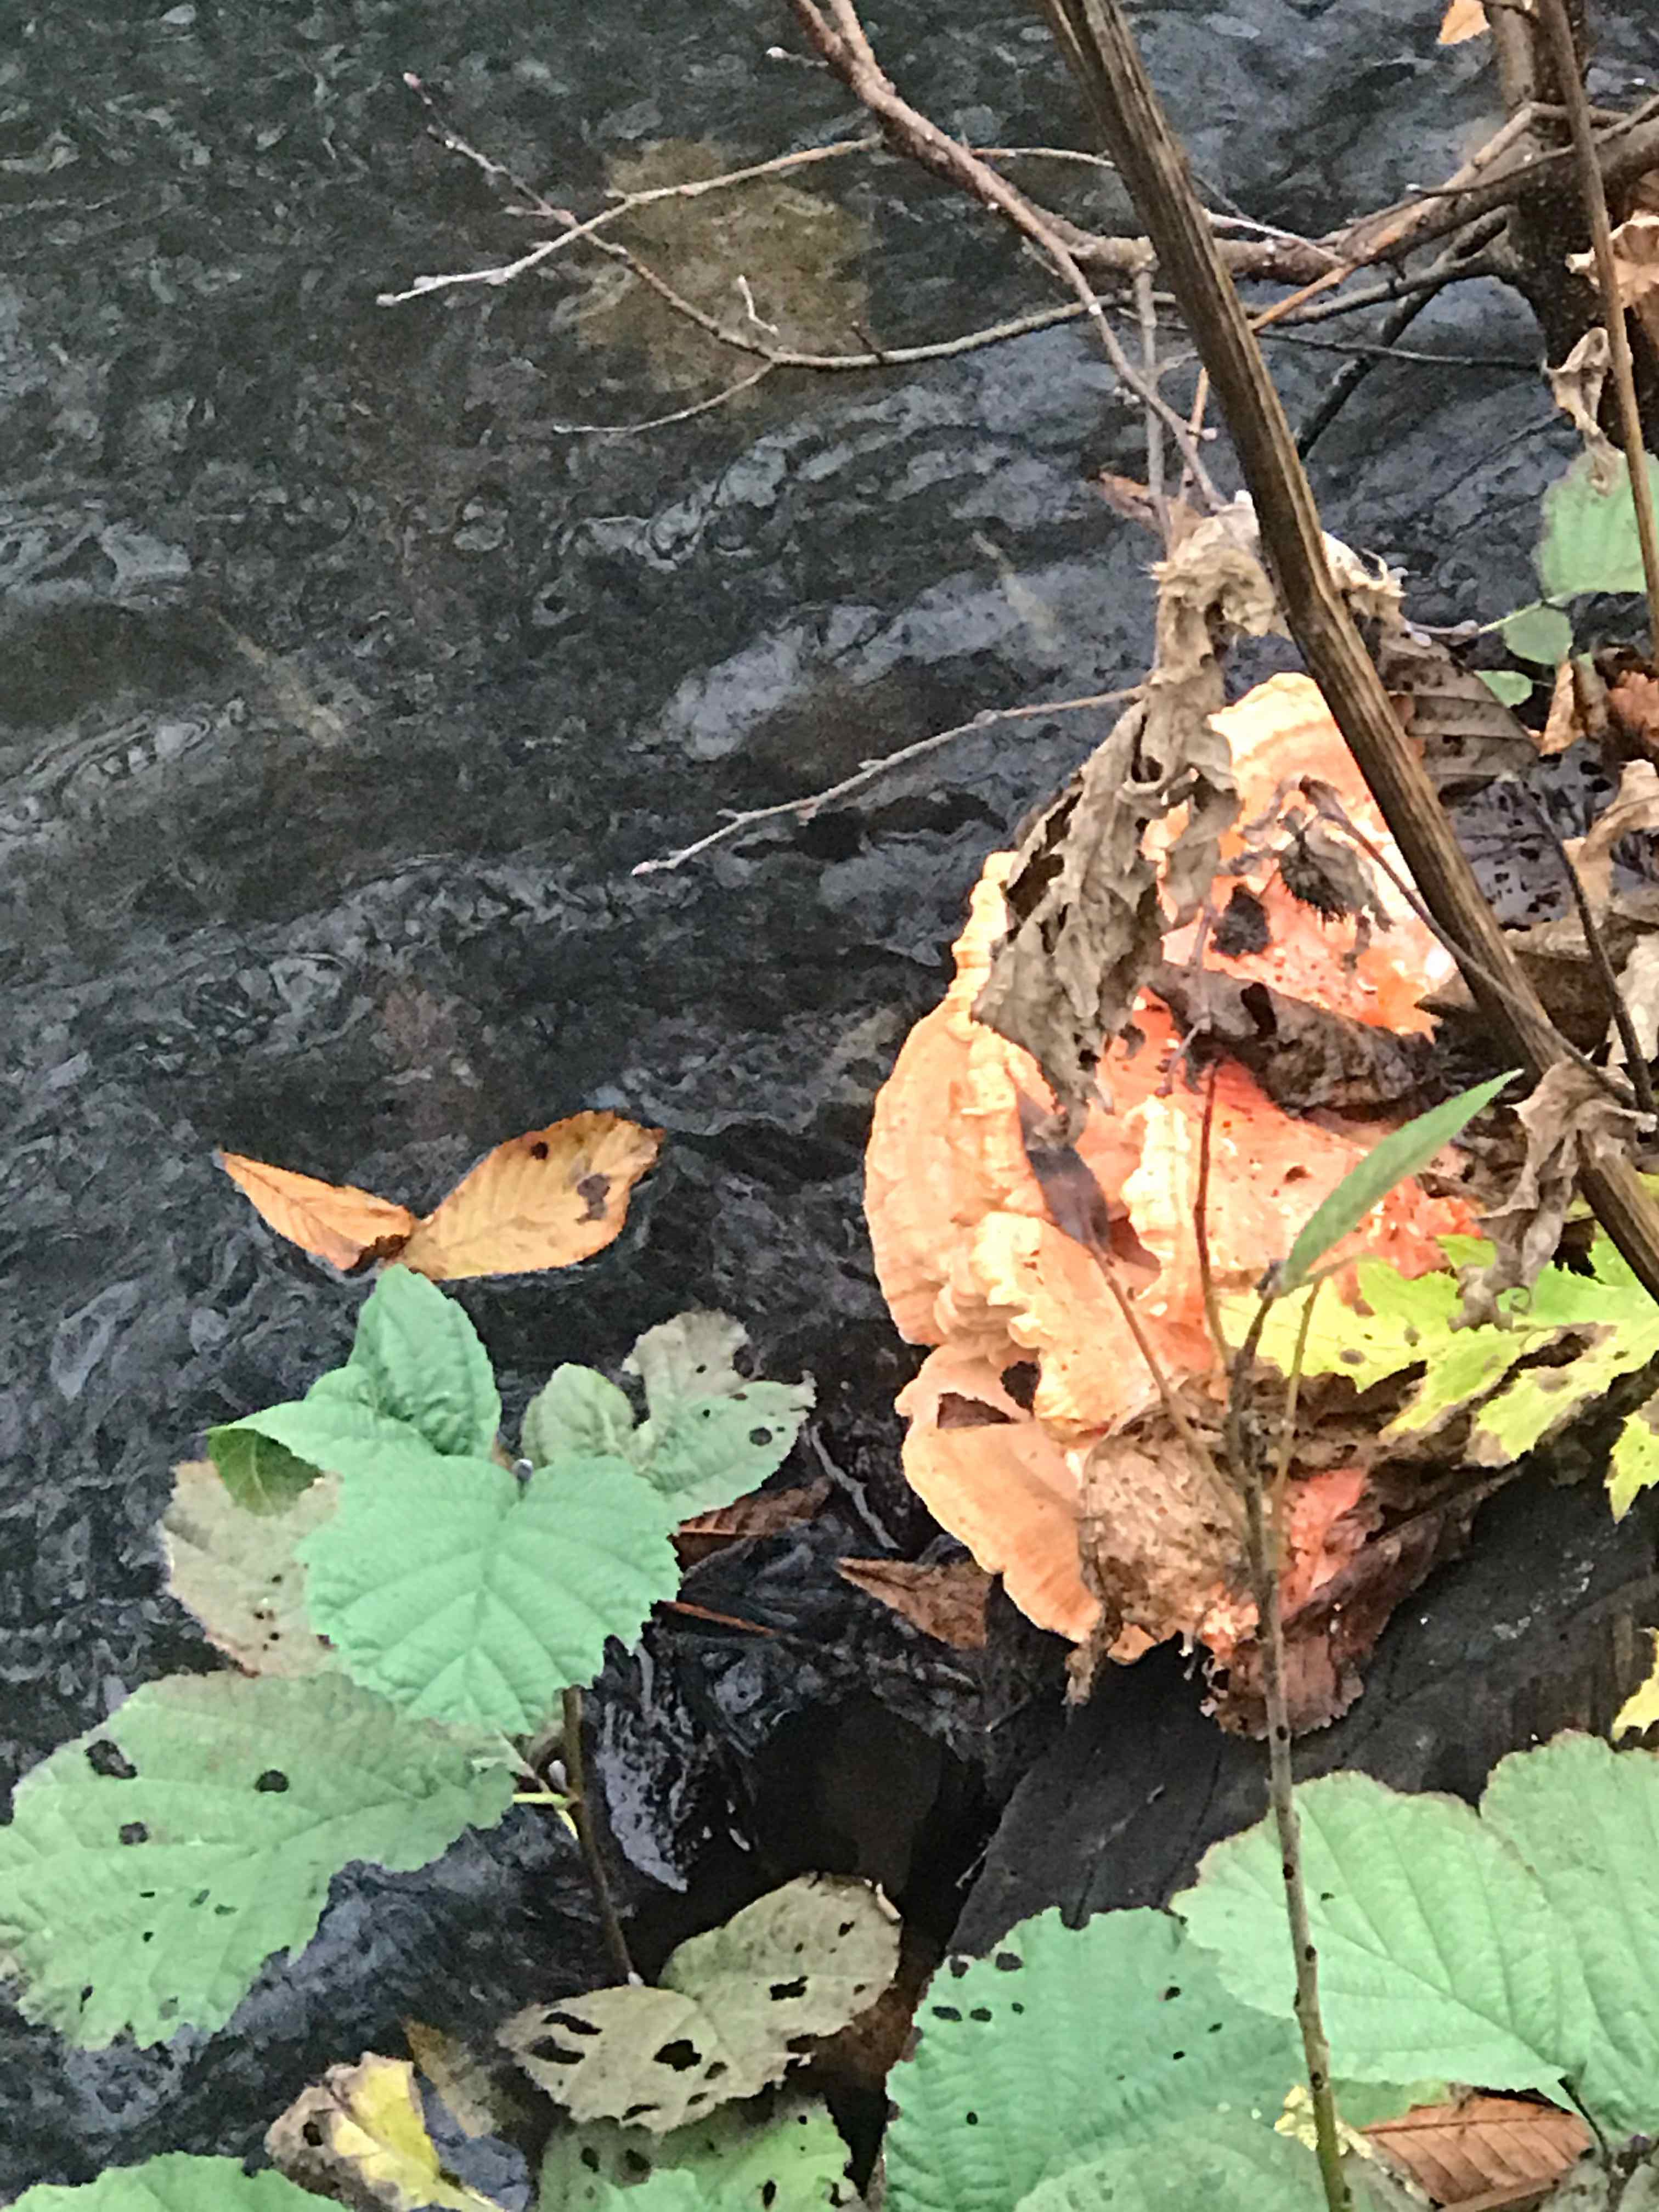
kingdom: Fungi
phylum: Basidiomycota
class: Agaricomycetes
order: Polyporales
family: Laetiporaceae
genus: Laetiporus
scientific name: Laetiporus
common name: svovlporesvamp
